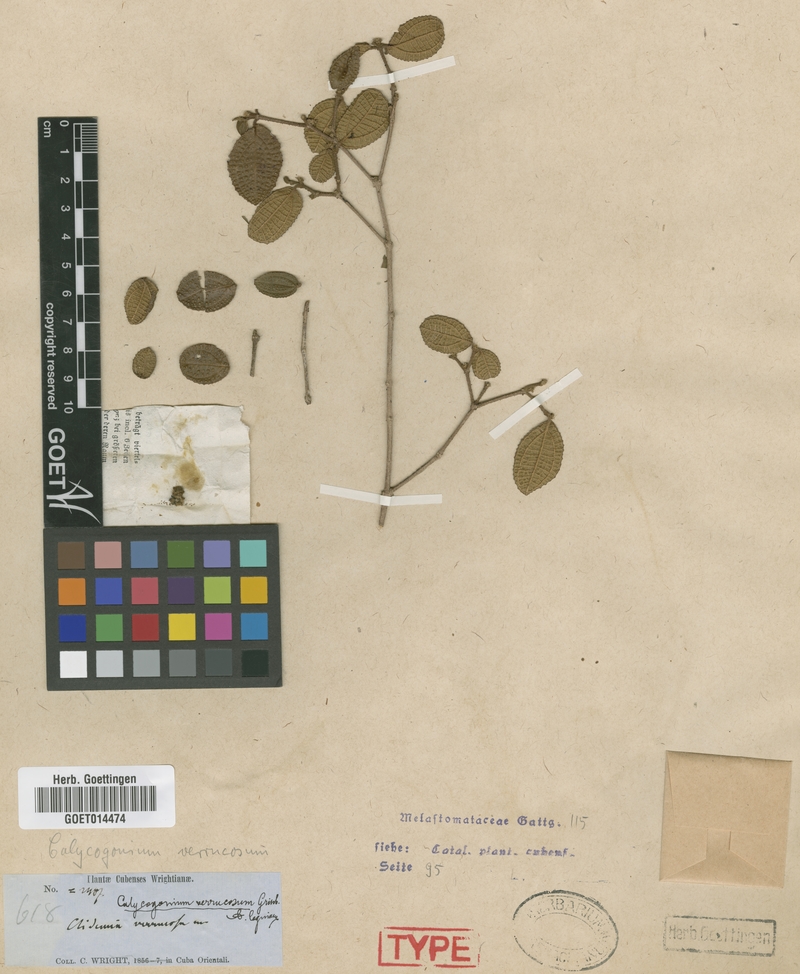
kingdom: Plantae
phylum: Tracheophyta
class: Magnoliopsida
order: Myrtales
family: Melastomataceae
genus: Miconia
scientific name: Miconia verrucosa
